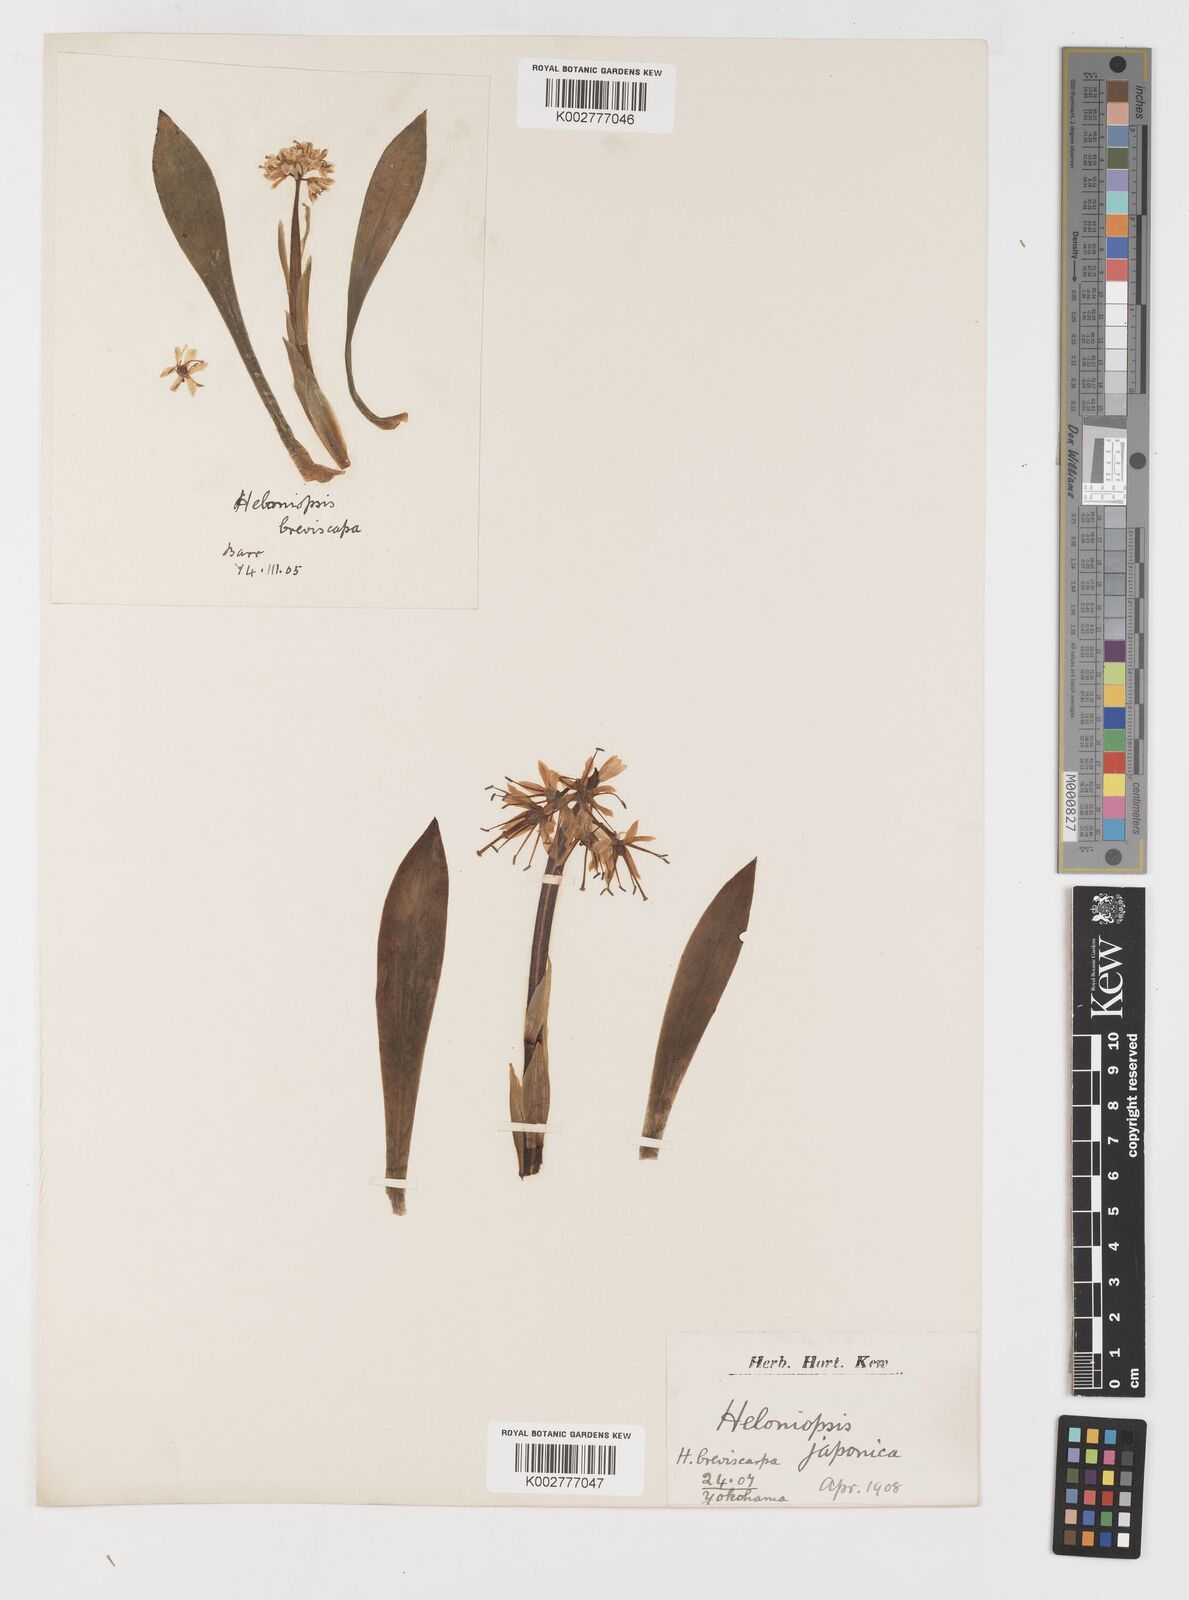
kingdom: Plantae
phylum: Tracheophyta
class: Liliopsida
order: Liliales
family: Melanthiaceae
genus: Helonias
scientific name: Helonias breviscapa
